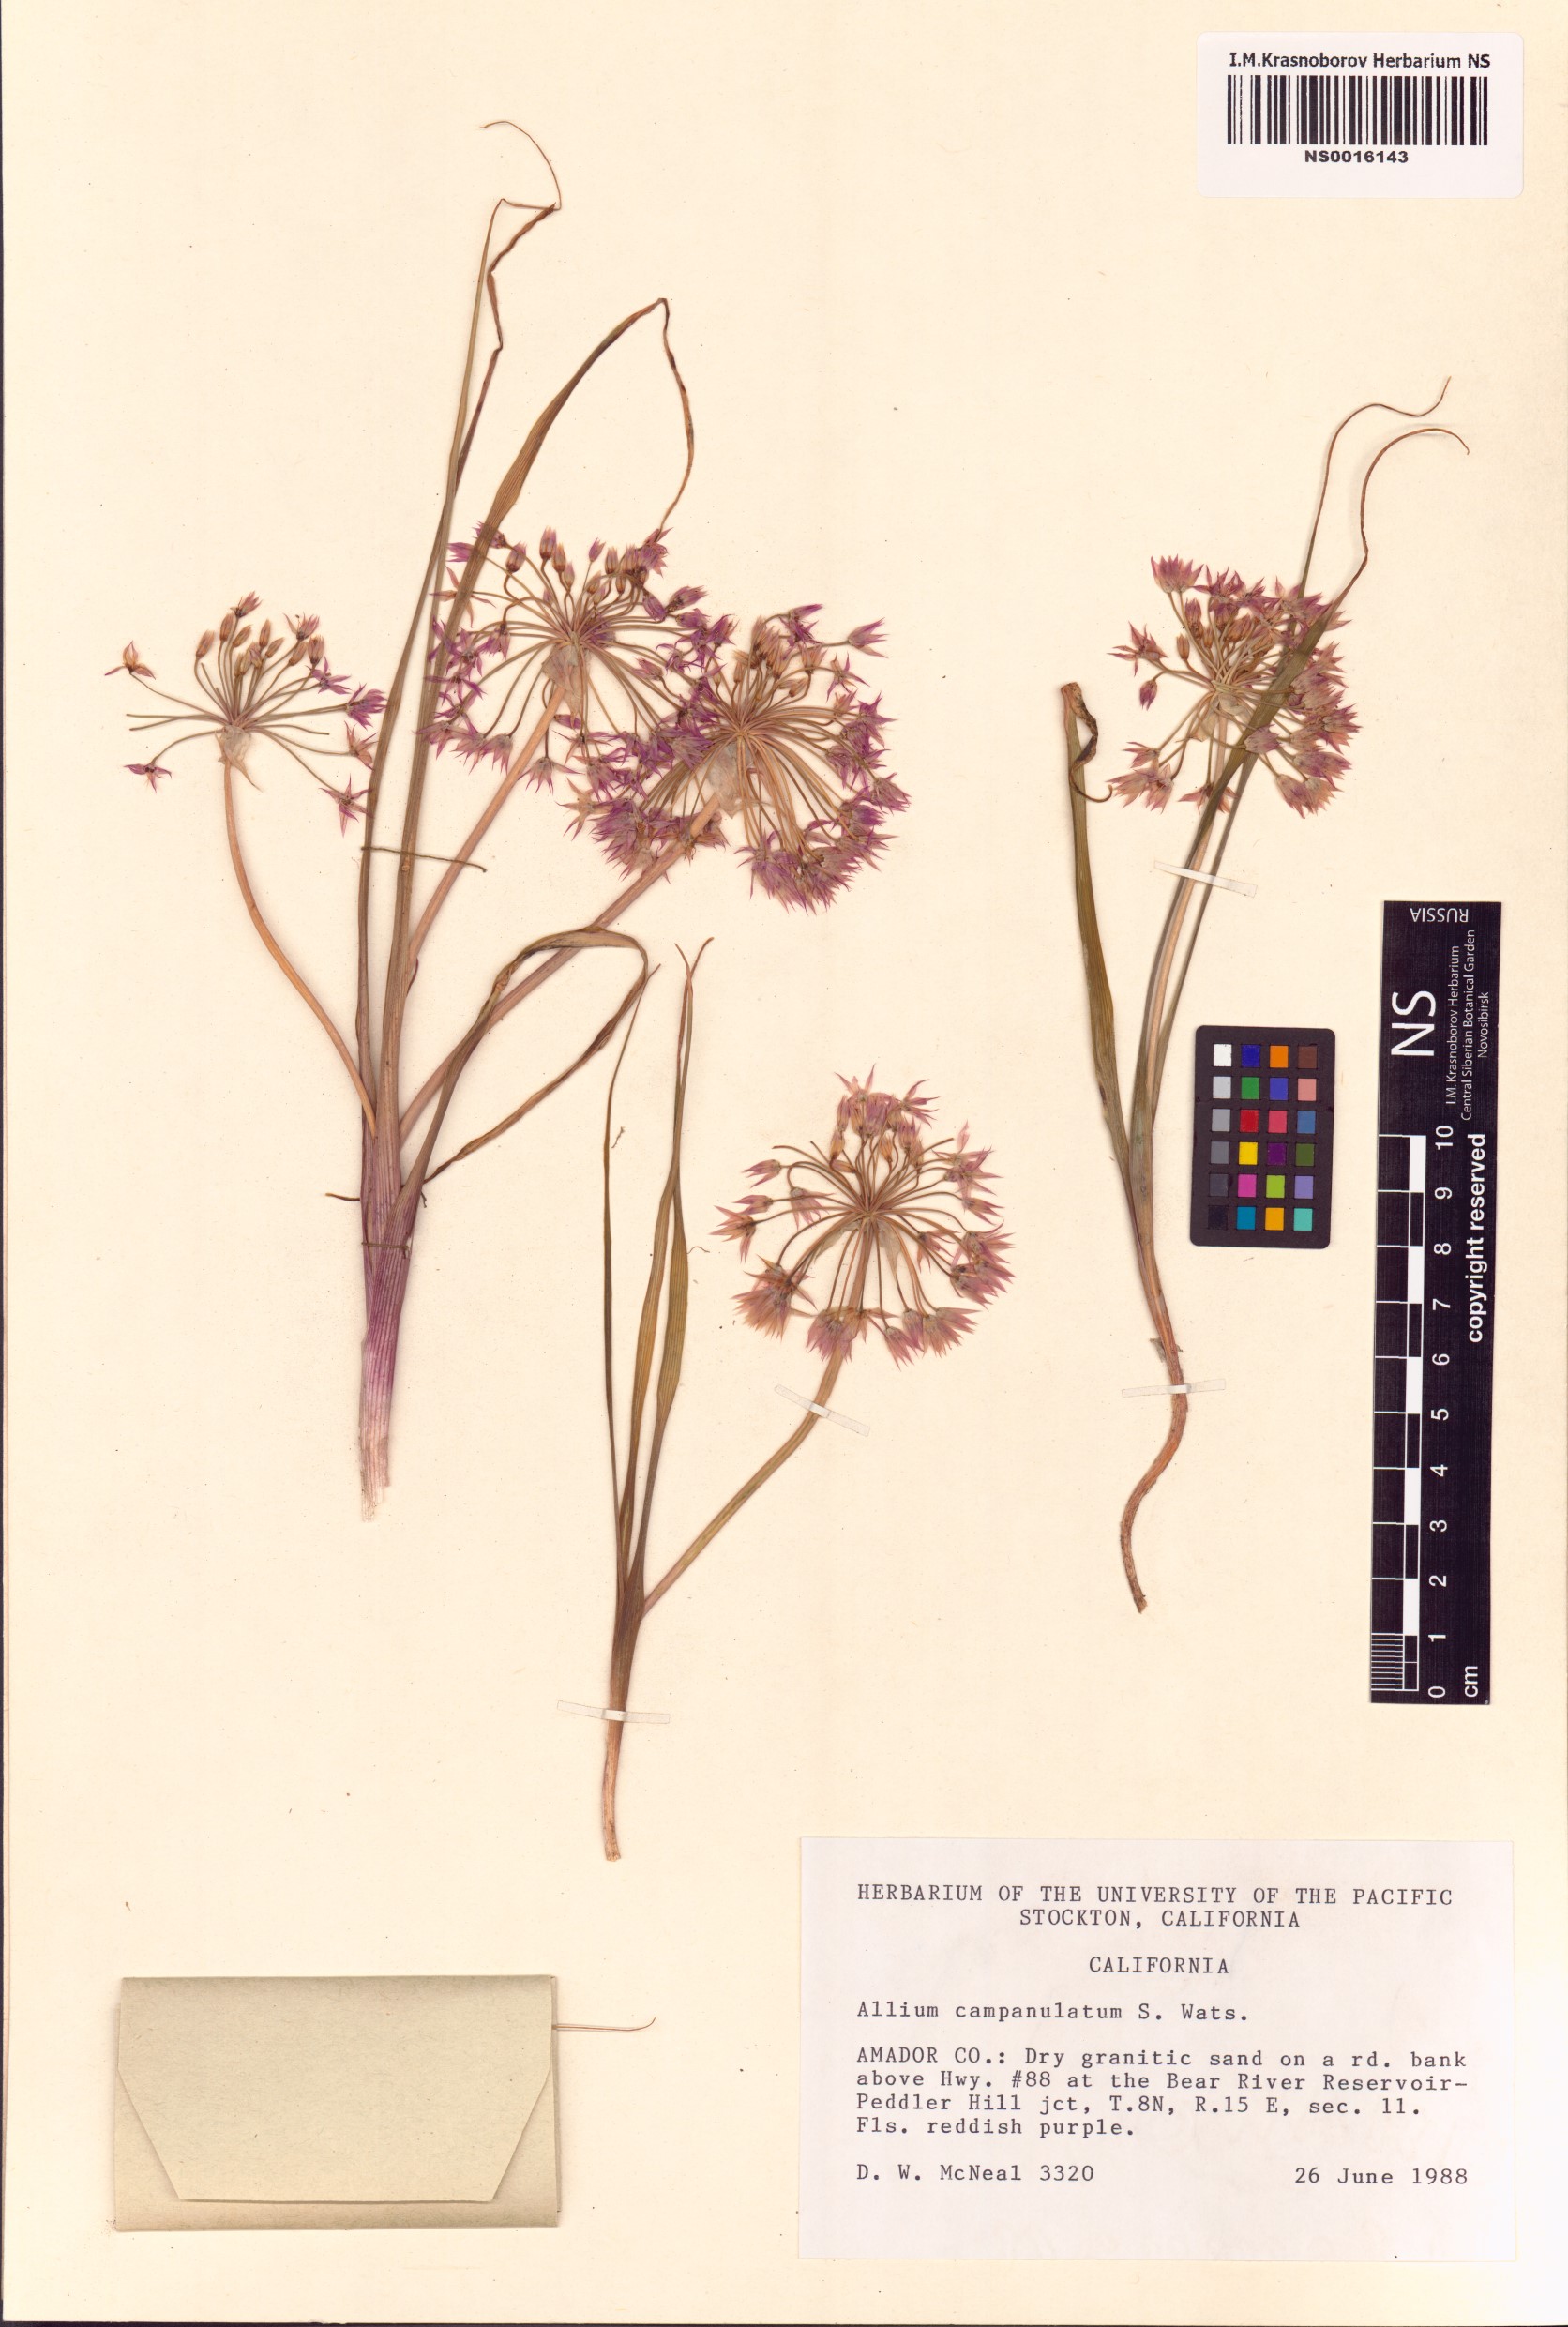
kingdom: Plantae
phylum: Tracheophyta
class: Liliopsida
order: Asparagales
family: Amaryllidaceae
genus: Allium
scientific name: Allium campanulatum
